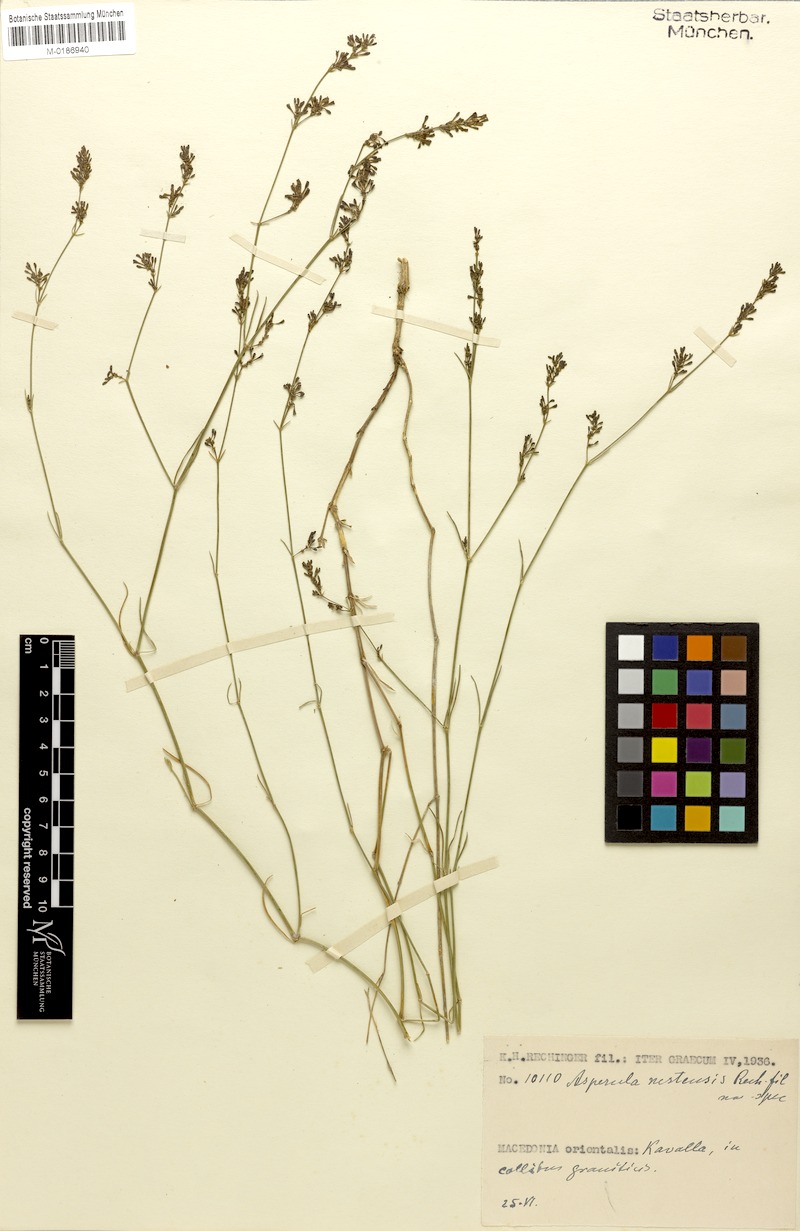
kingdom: Plantae
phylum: Tracheophyta
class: Magnoliopsida
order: Gentianales
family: Rubiaceae
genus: Cynanchica
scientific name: Cynanchica aristata
